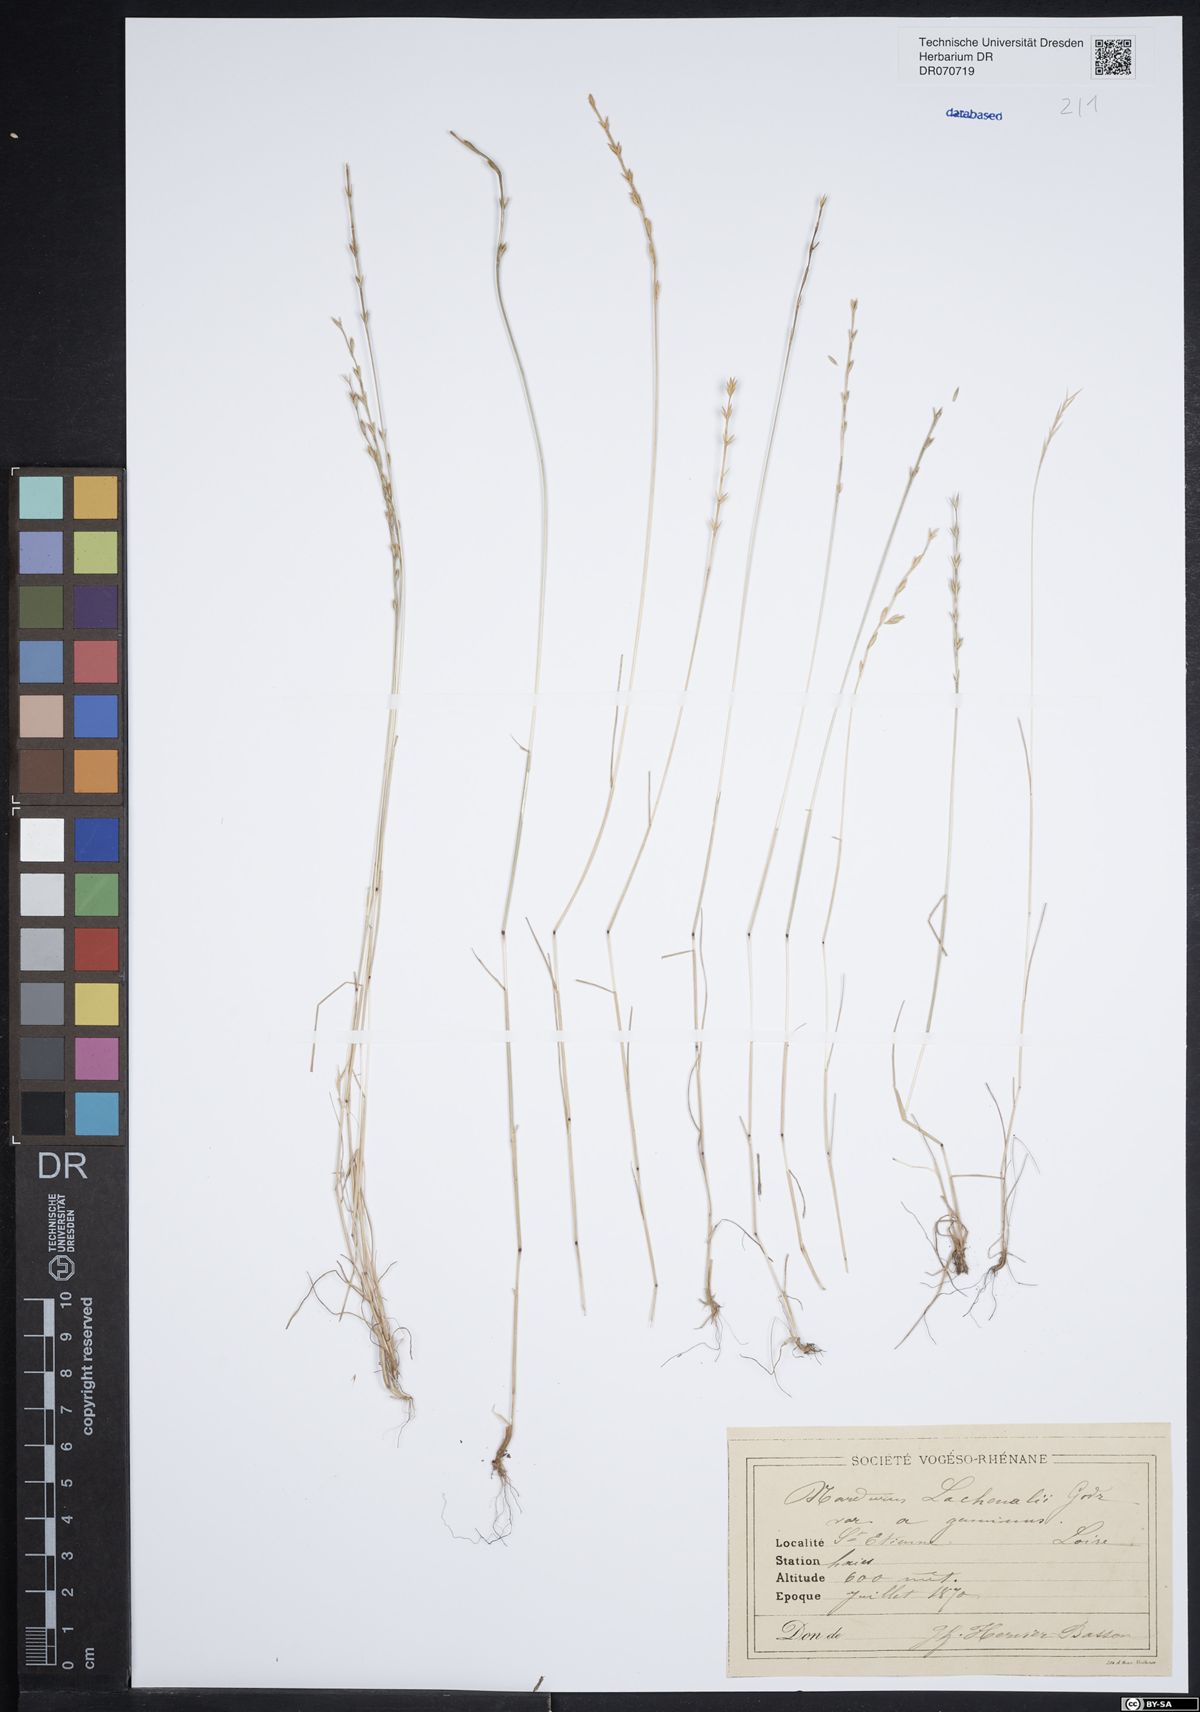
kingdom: Plantae
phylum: Tracheophyta
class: Liliopsida
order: Poales
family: Poaceae
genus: Festuca
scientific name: Festuca lachenalii
